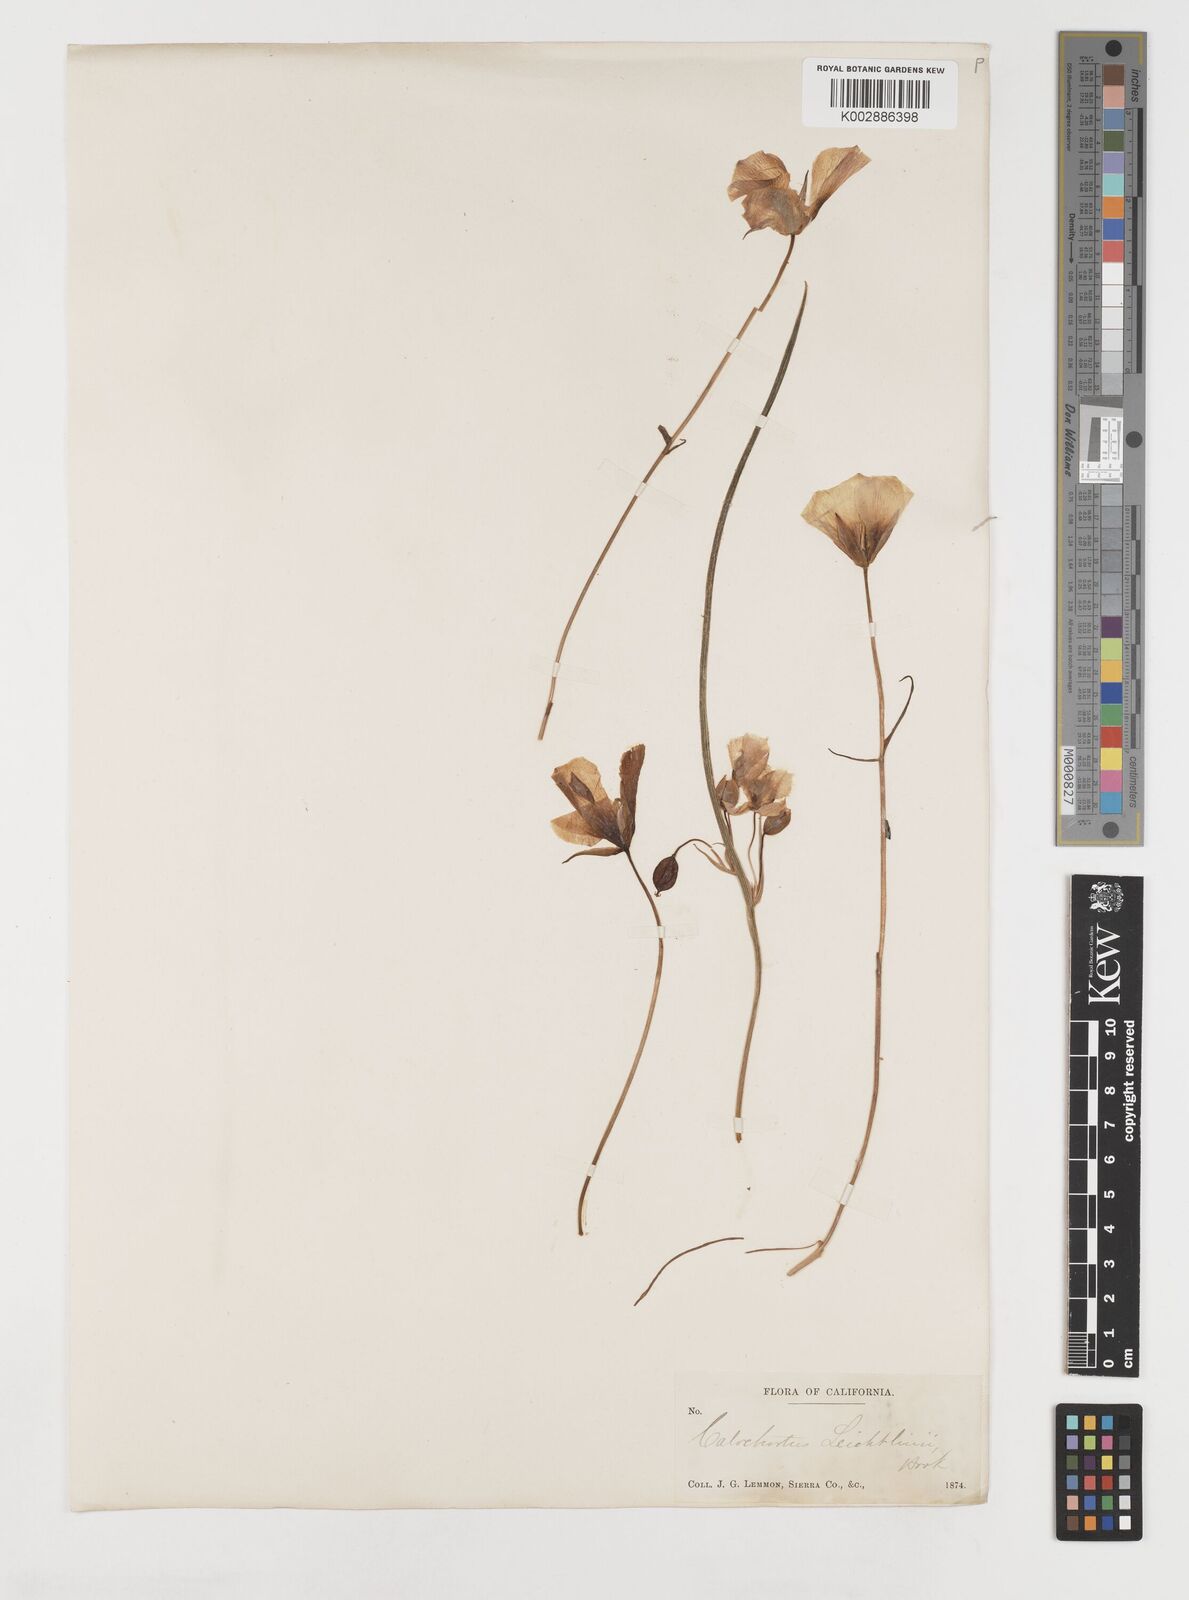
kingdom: Plantae
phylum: Tracheophyta
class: Liliopsida
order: Liliales
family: Liliaceae
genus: Calochortus
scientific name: Calochortus leichtlinii
